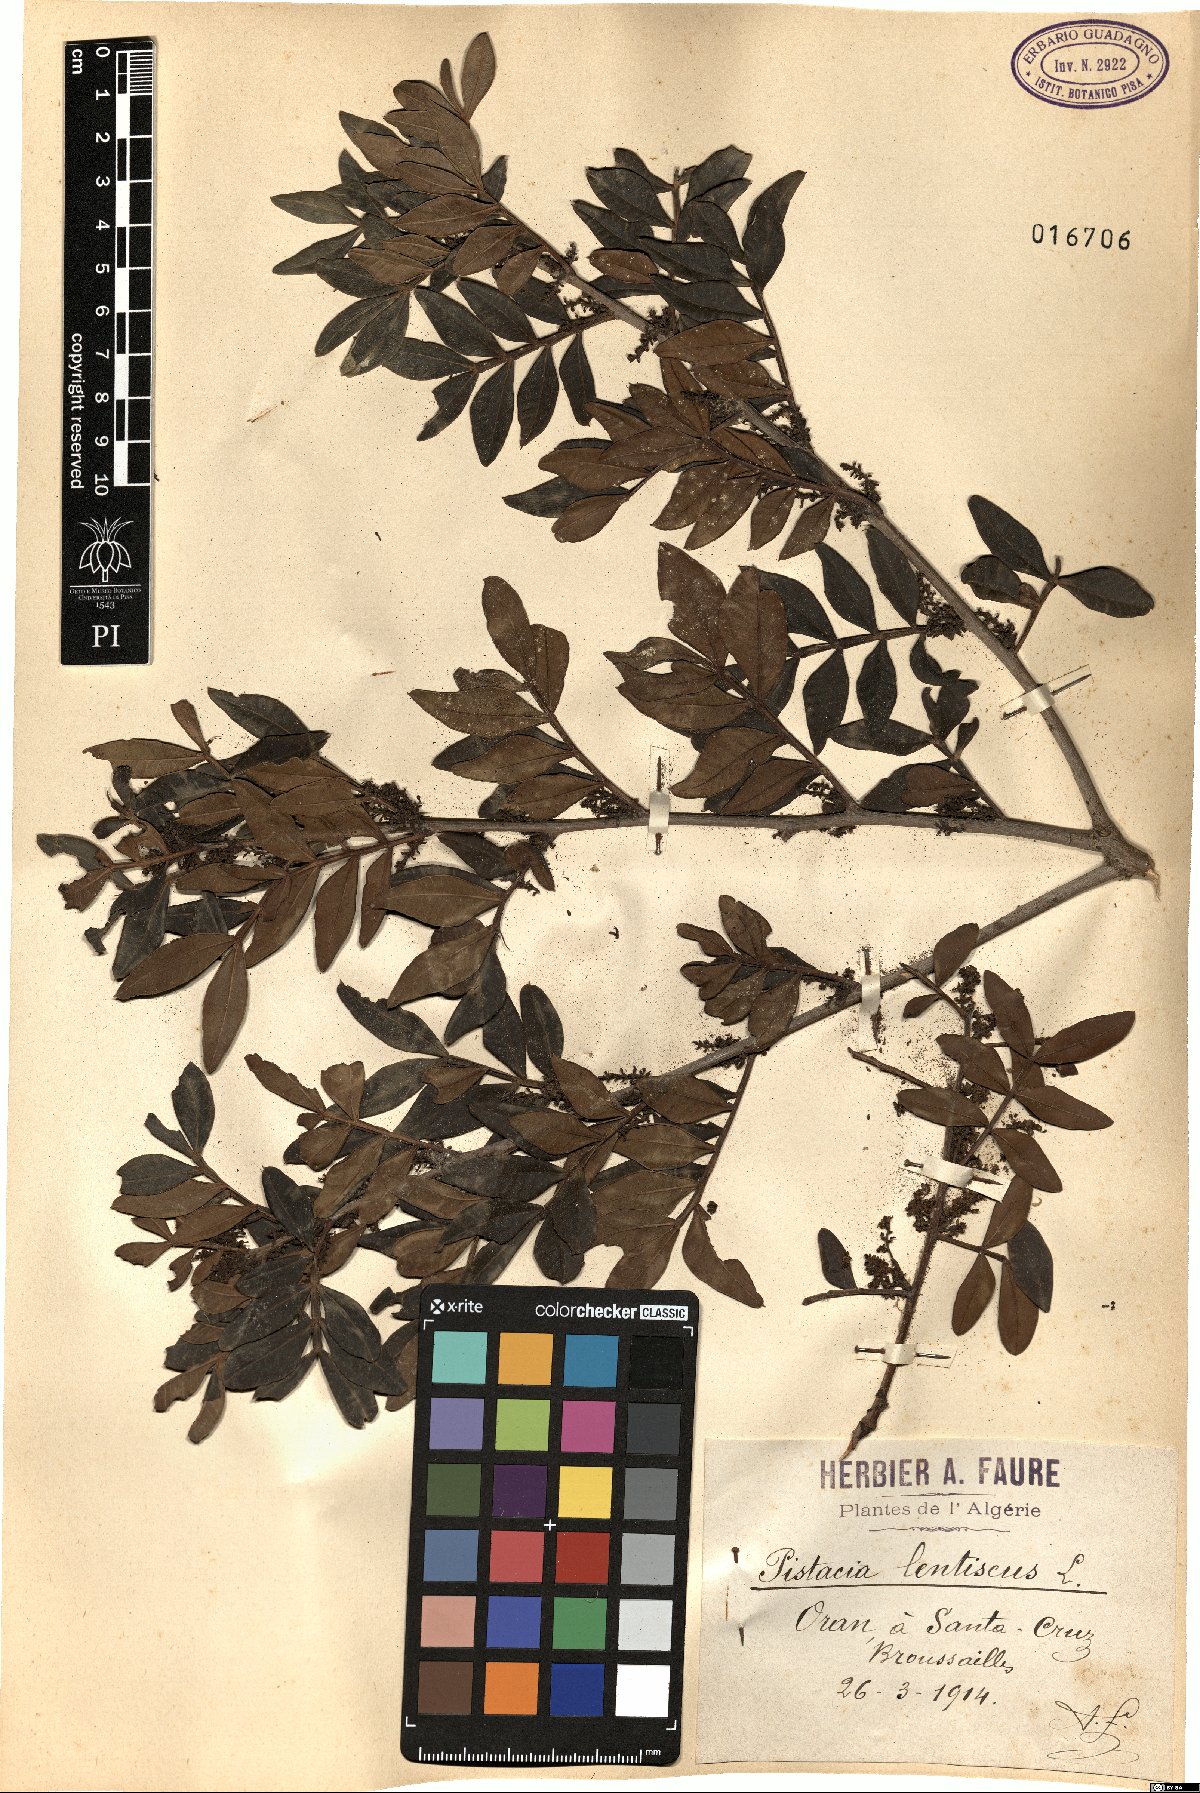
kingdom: Plantae
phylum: Tracheophyta
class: Magnoliopsida
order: Sapindales
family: Anacardiaceae
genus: Pistacia
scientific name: Pistacia lentiscus
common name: Lentisk
